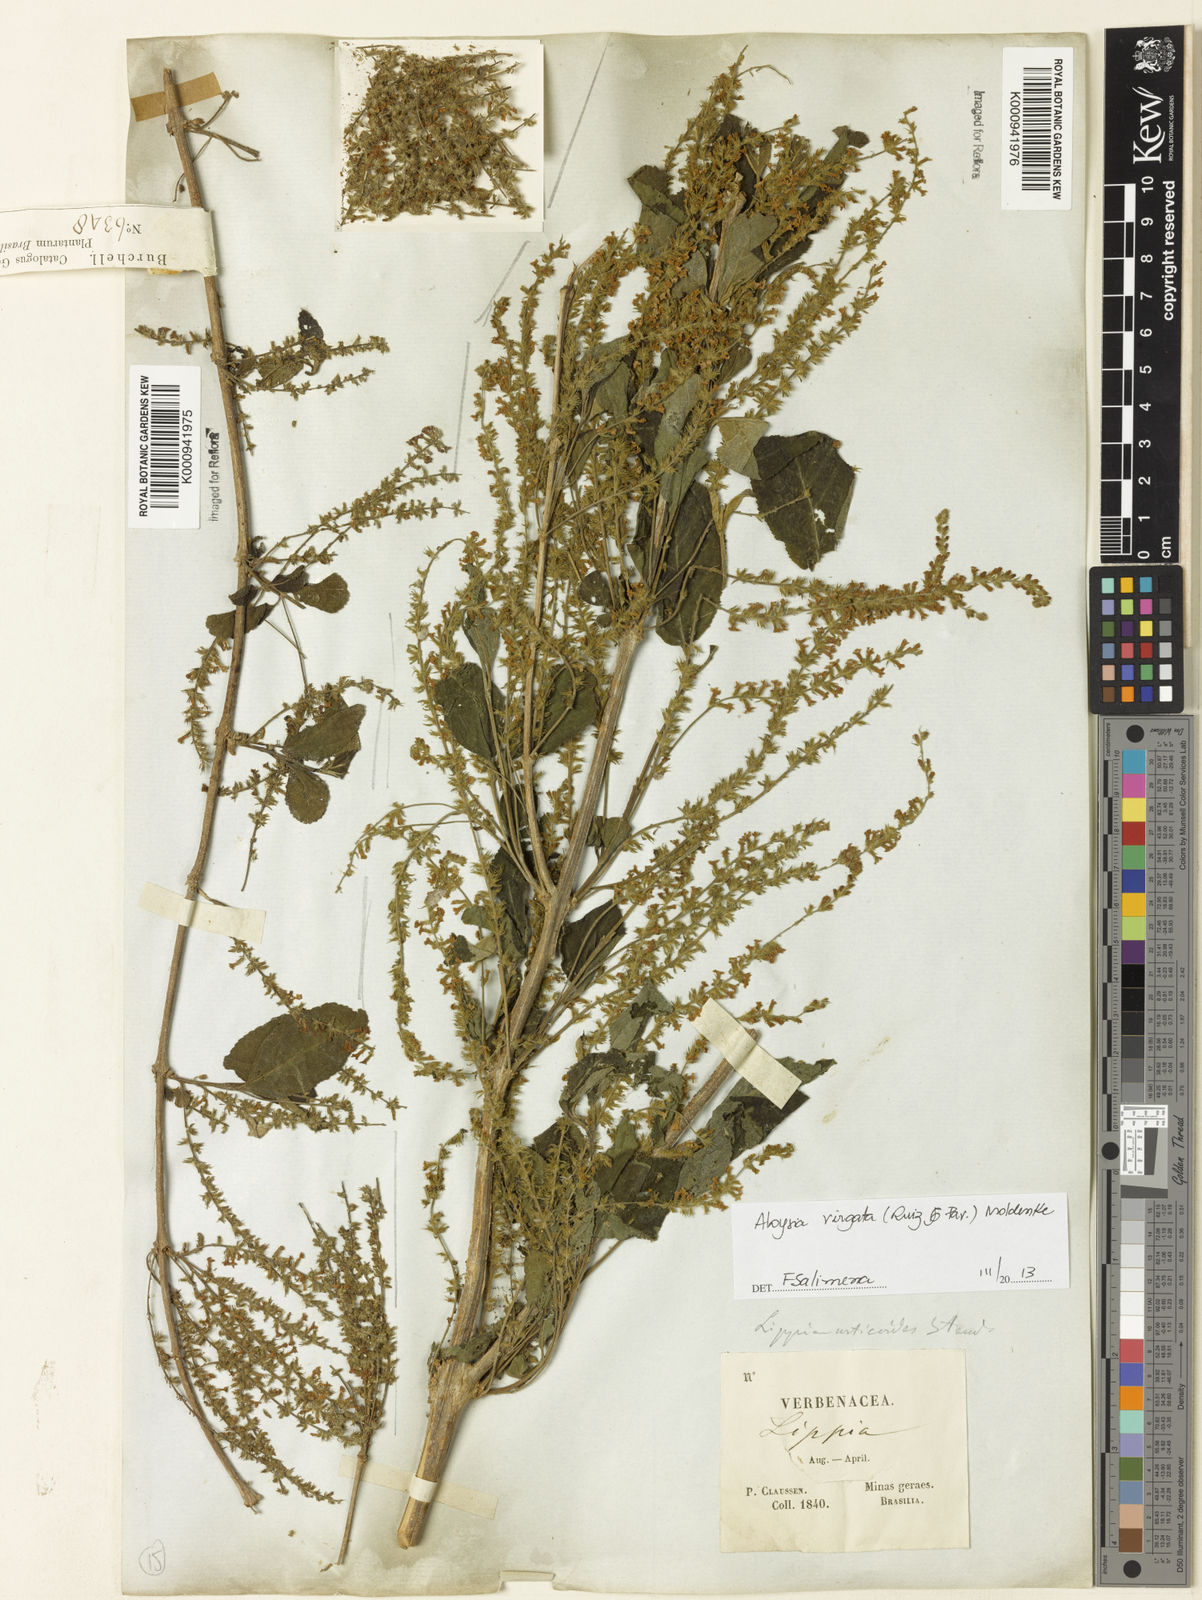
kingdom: Plantae
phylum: Tracheophyta
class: Magnoliopsida
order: Lamiales
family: Verbenaceae
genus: Aloysia
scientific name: Aloysia
